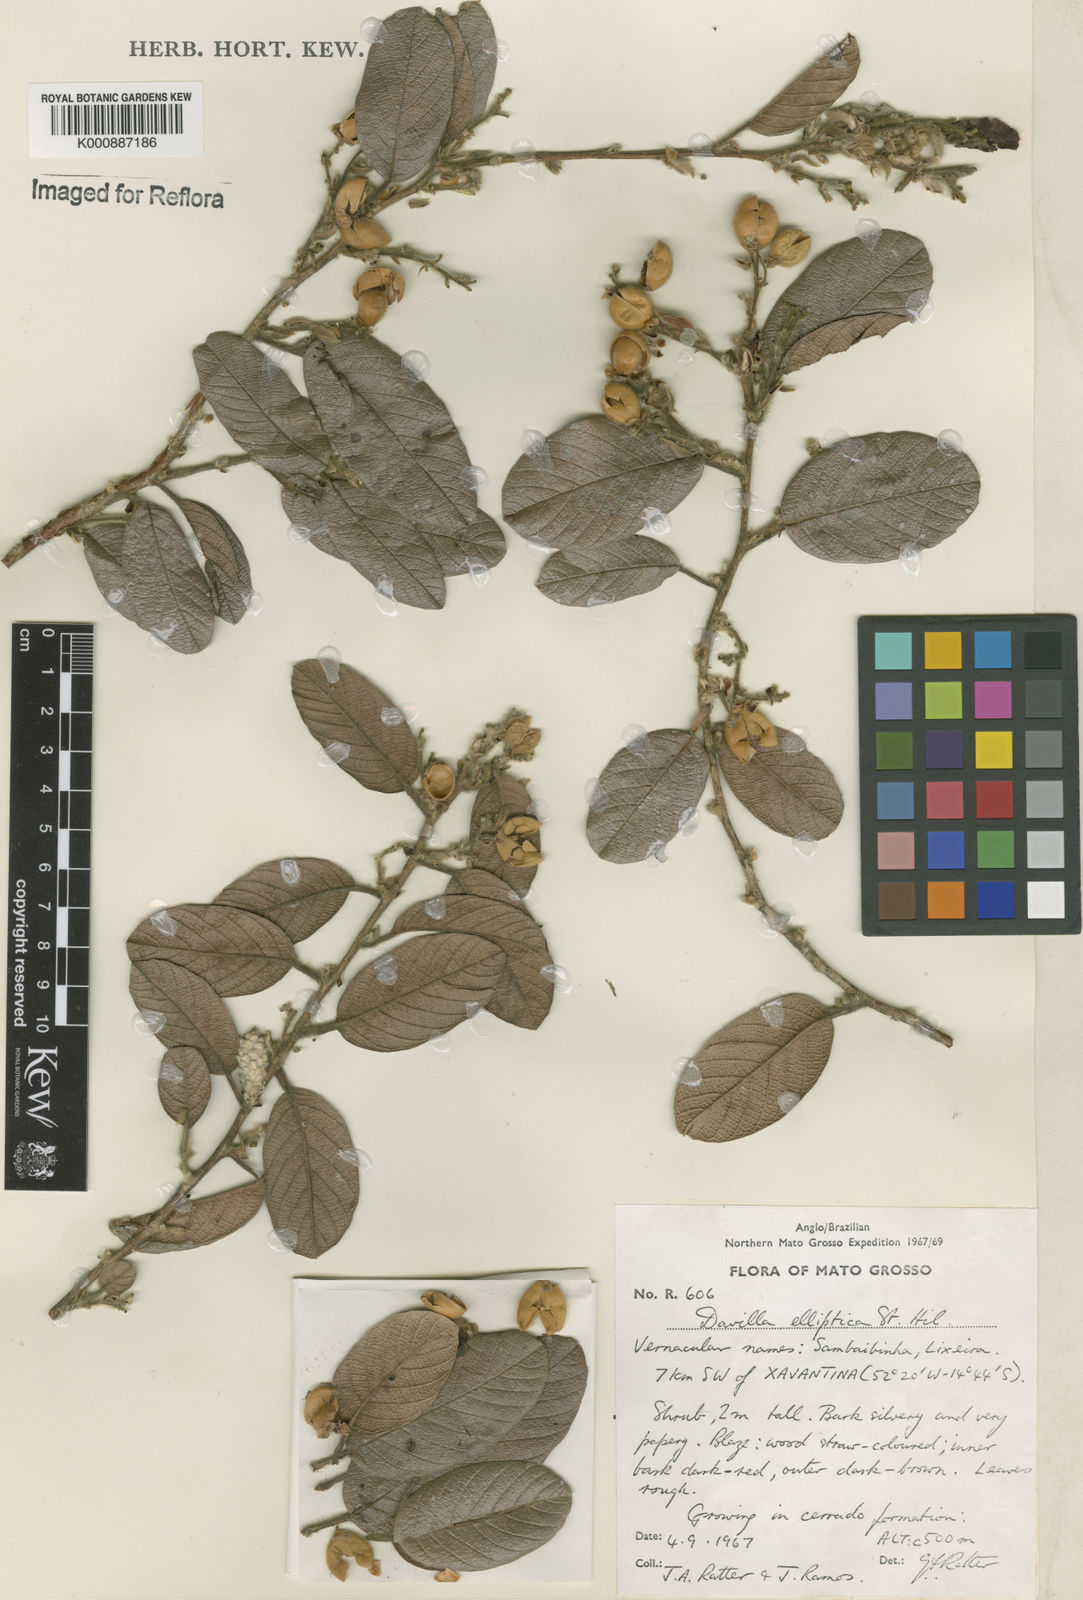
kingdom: Plantae
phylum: Tracheophyta
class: Magnoliopsida
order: Dilleniales
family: Dilleniaceae
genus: Davilla
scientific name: Davilla elliptica
